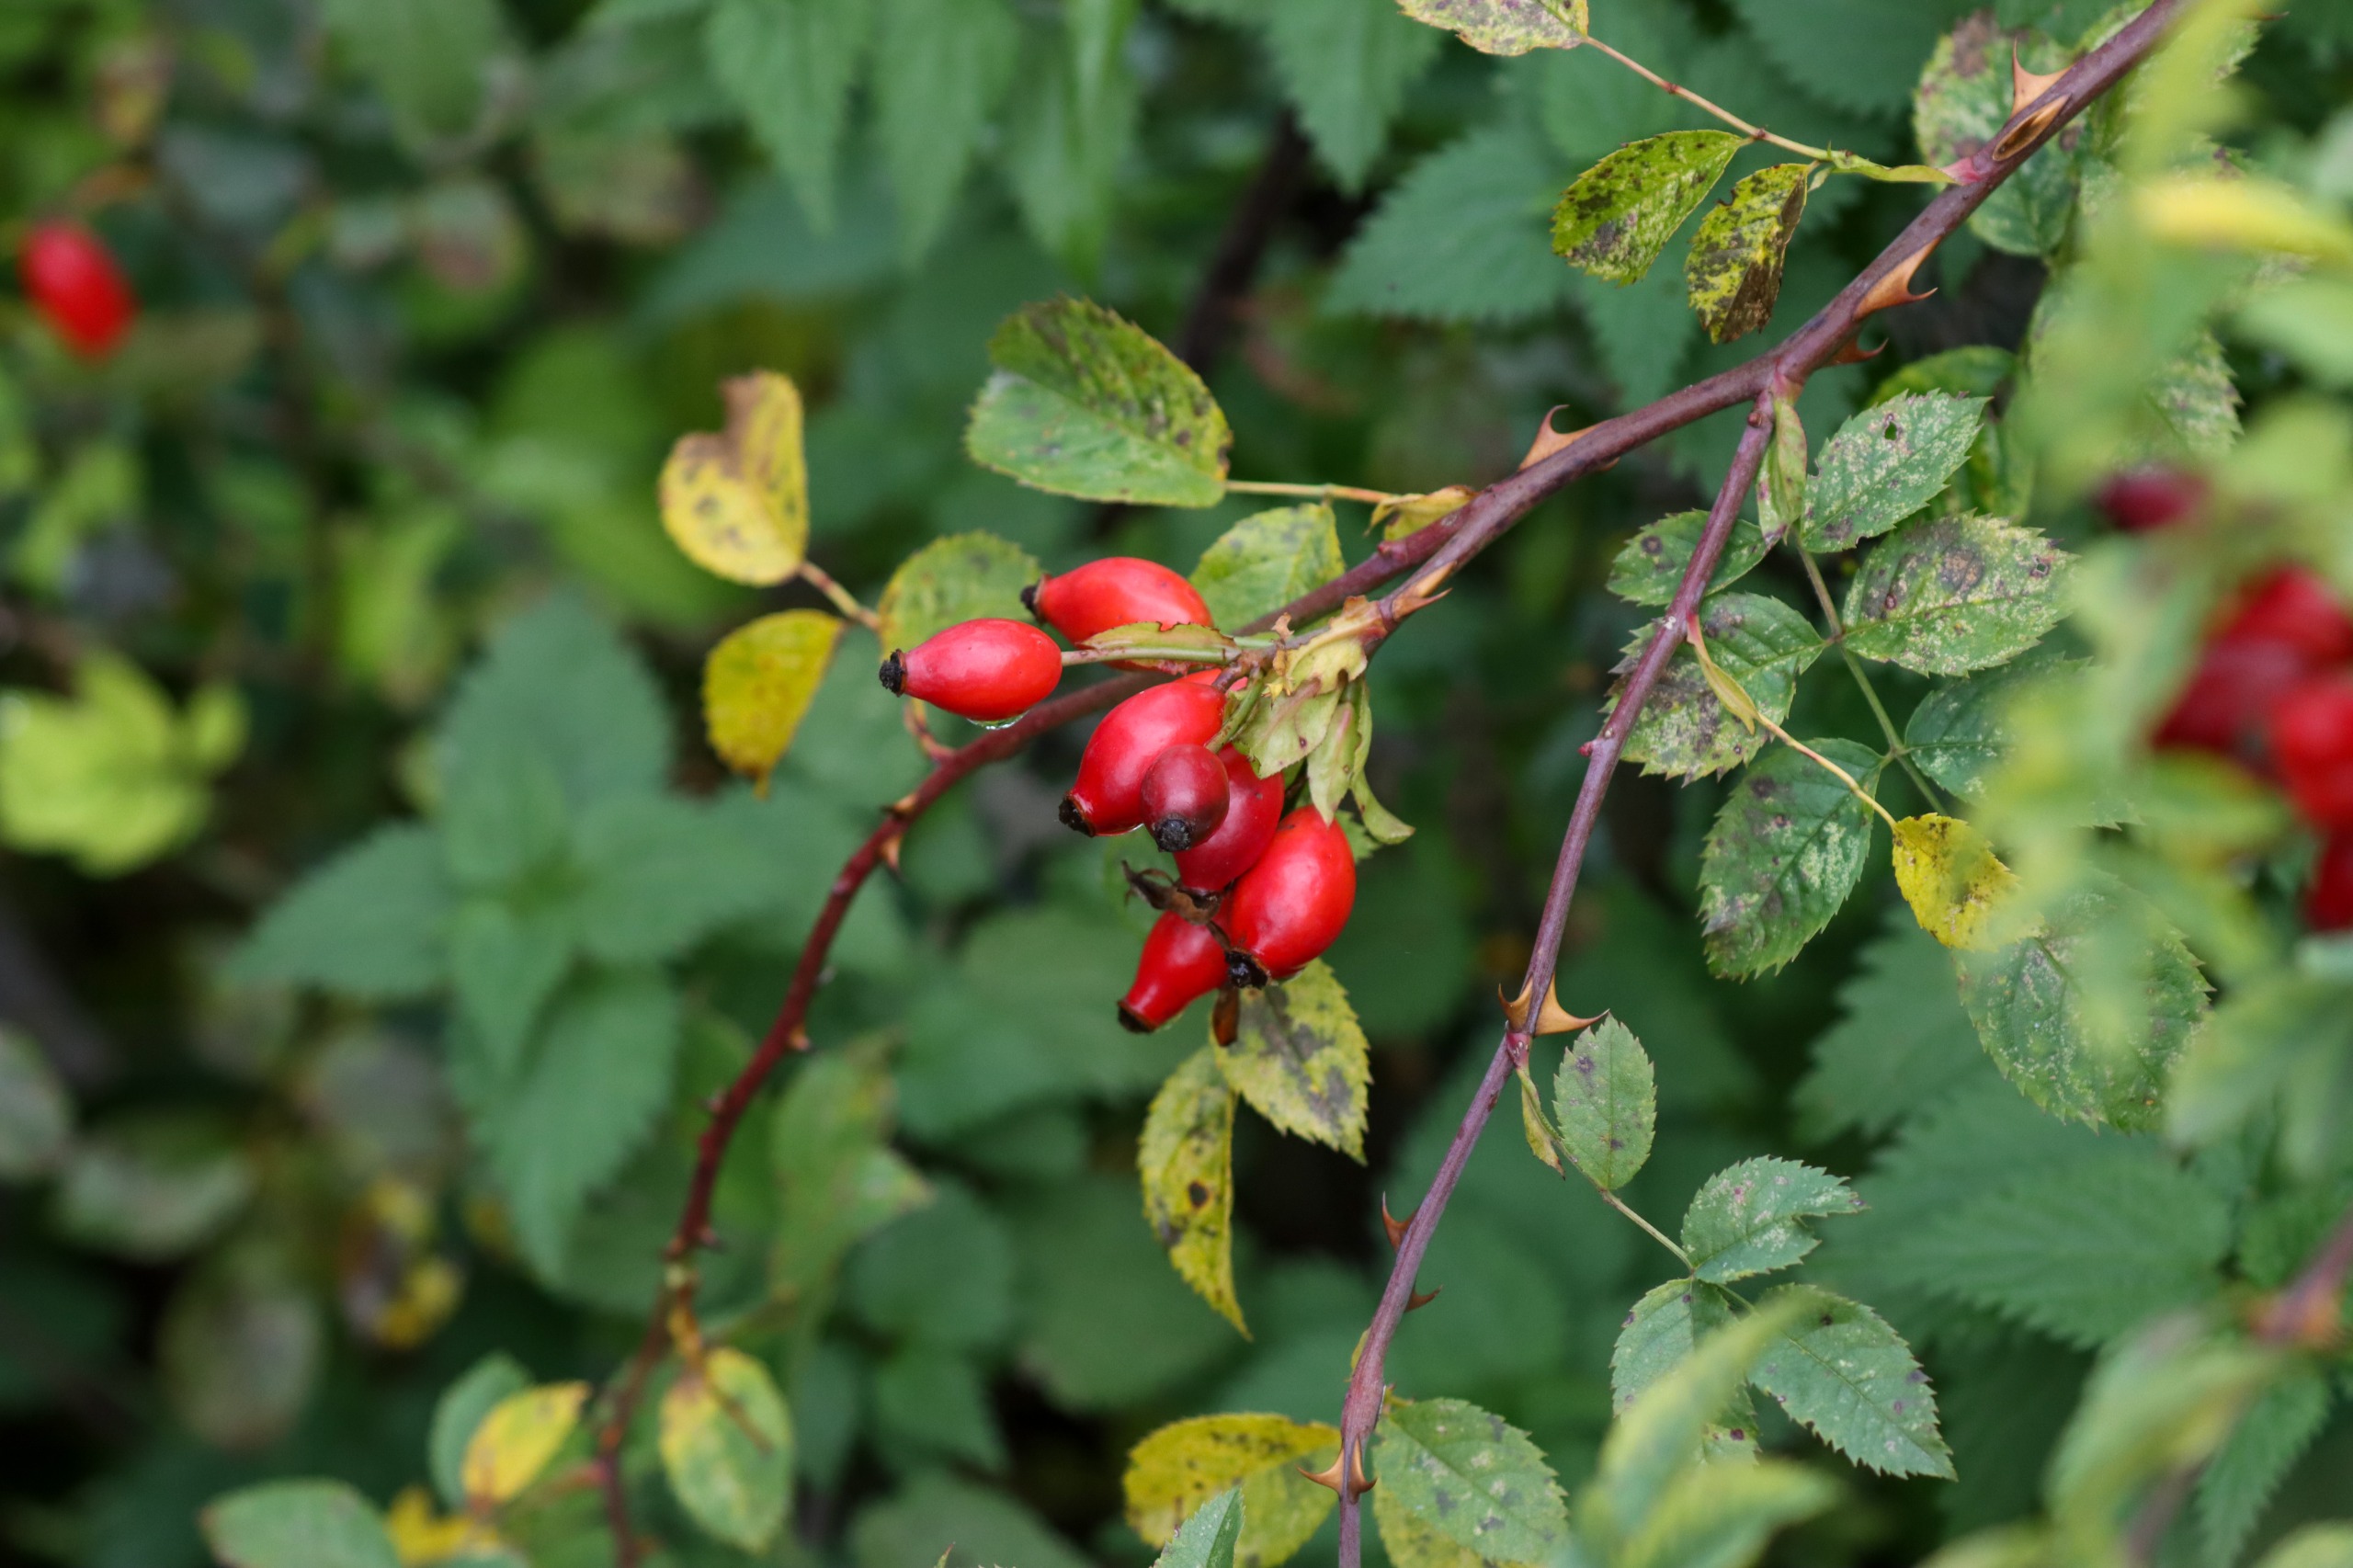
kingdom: Plantae
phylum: Tracheophyta
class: Magnoliopsida
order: Rosales
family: Rosaceae
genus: Rosa
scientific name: Rosa canina
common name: Hunde-rose
